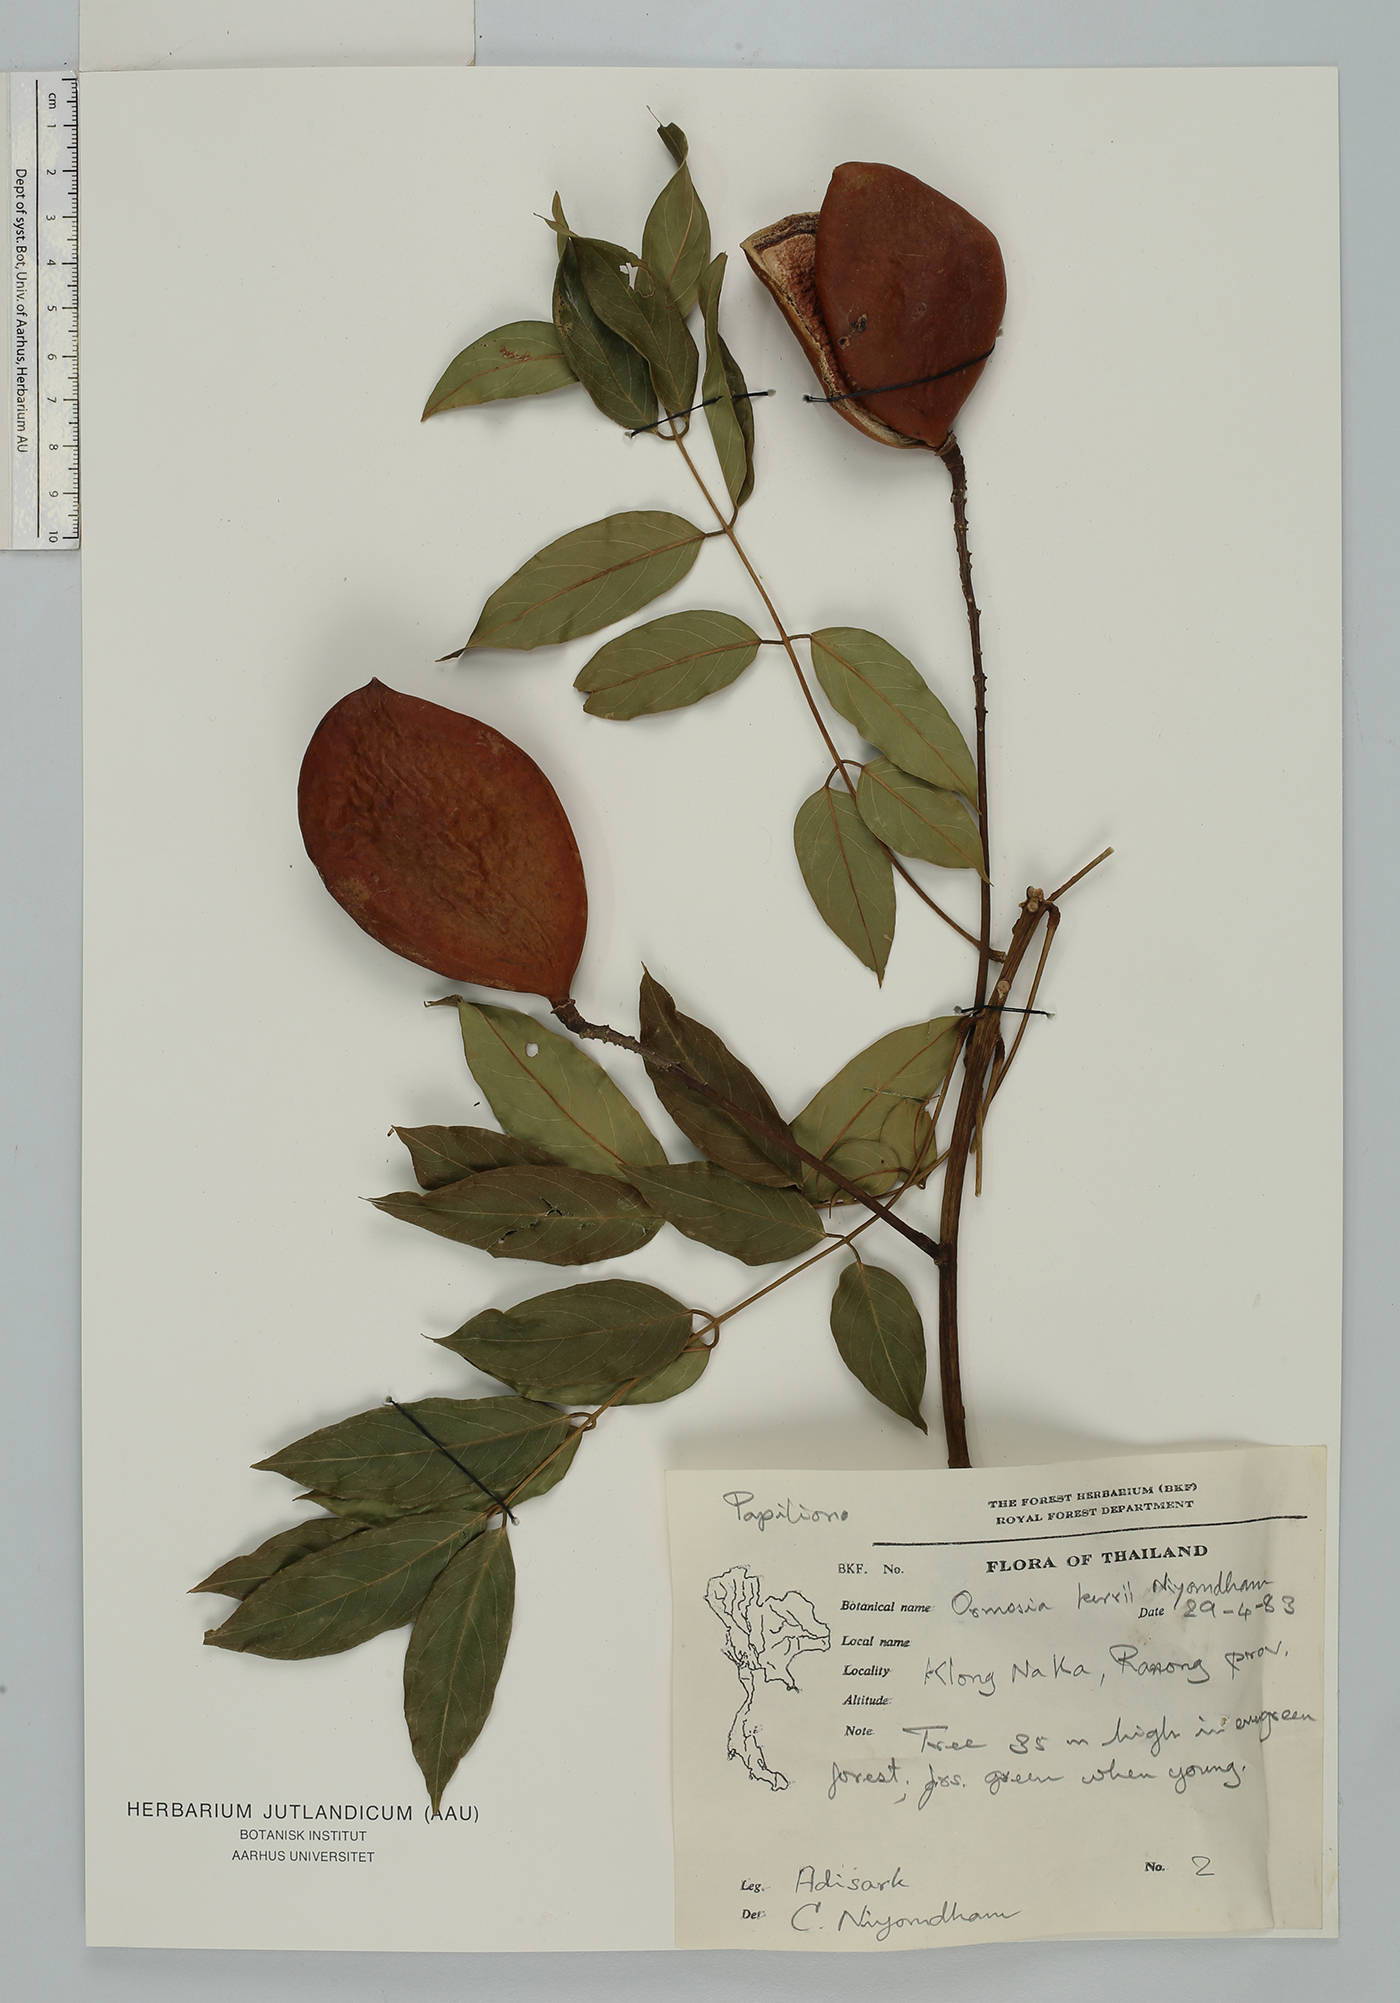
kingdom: Plantae
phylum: Tracheophyta
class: Magnoliopsida
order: Fabales
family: Fabaceae
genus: Ormosia
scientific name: Ormosia kerrii
